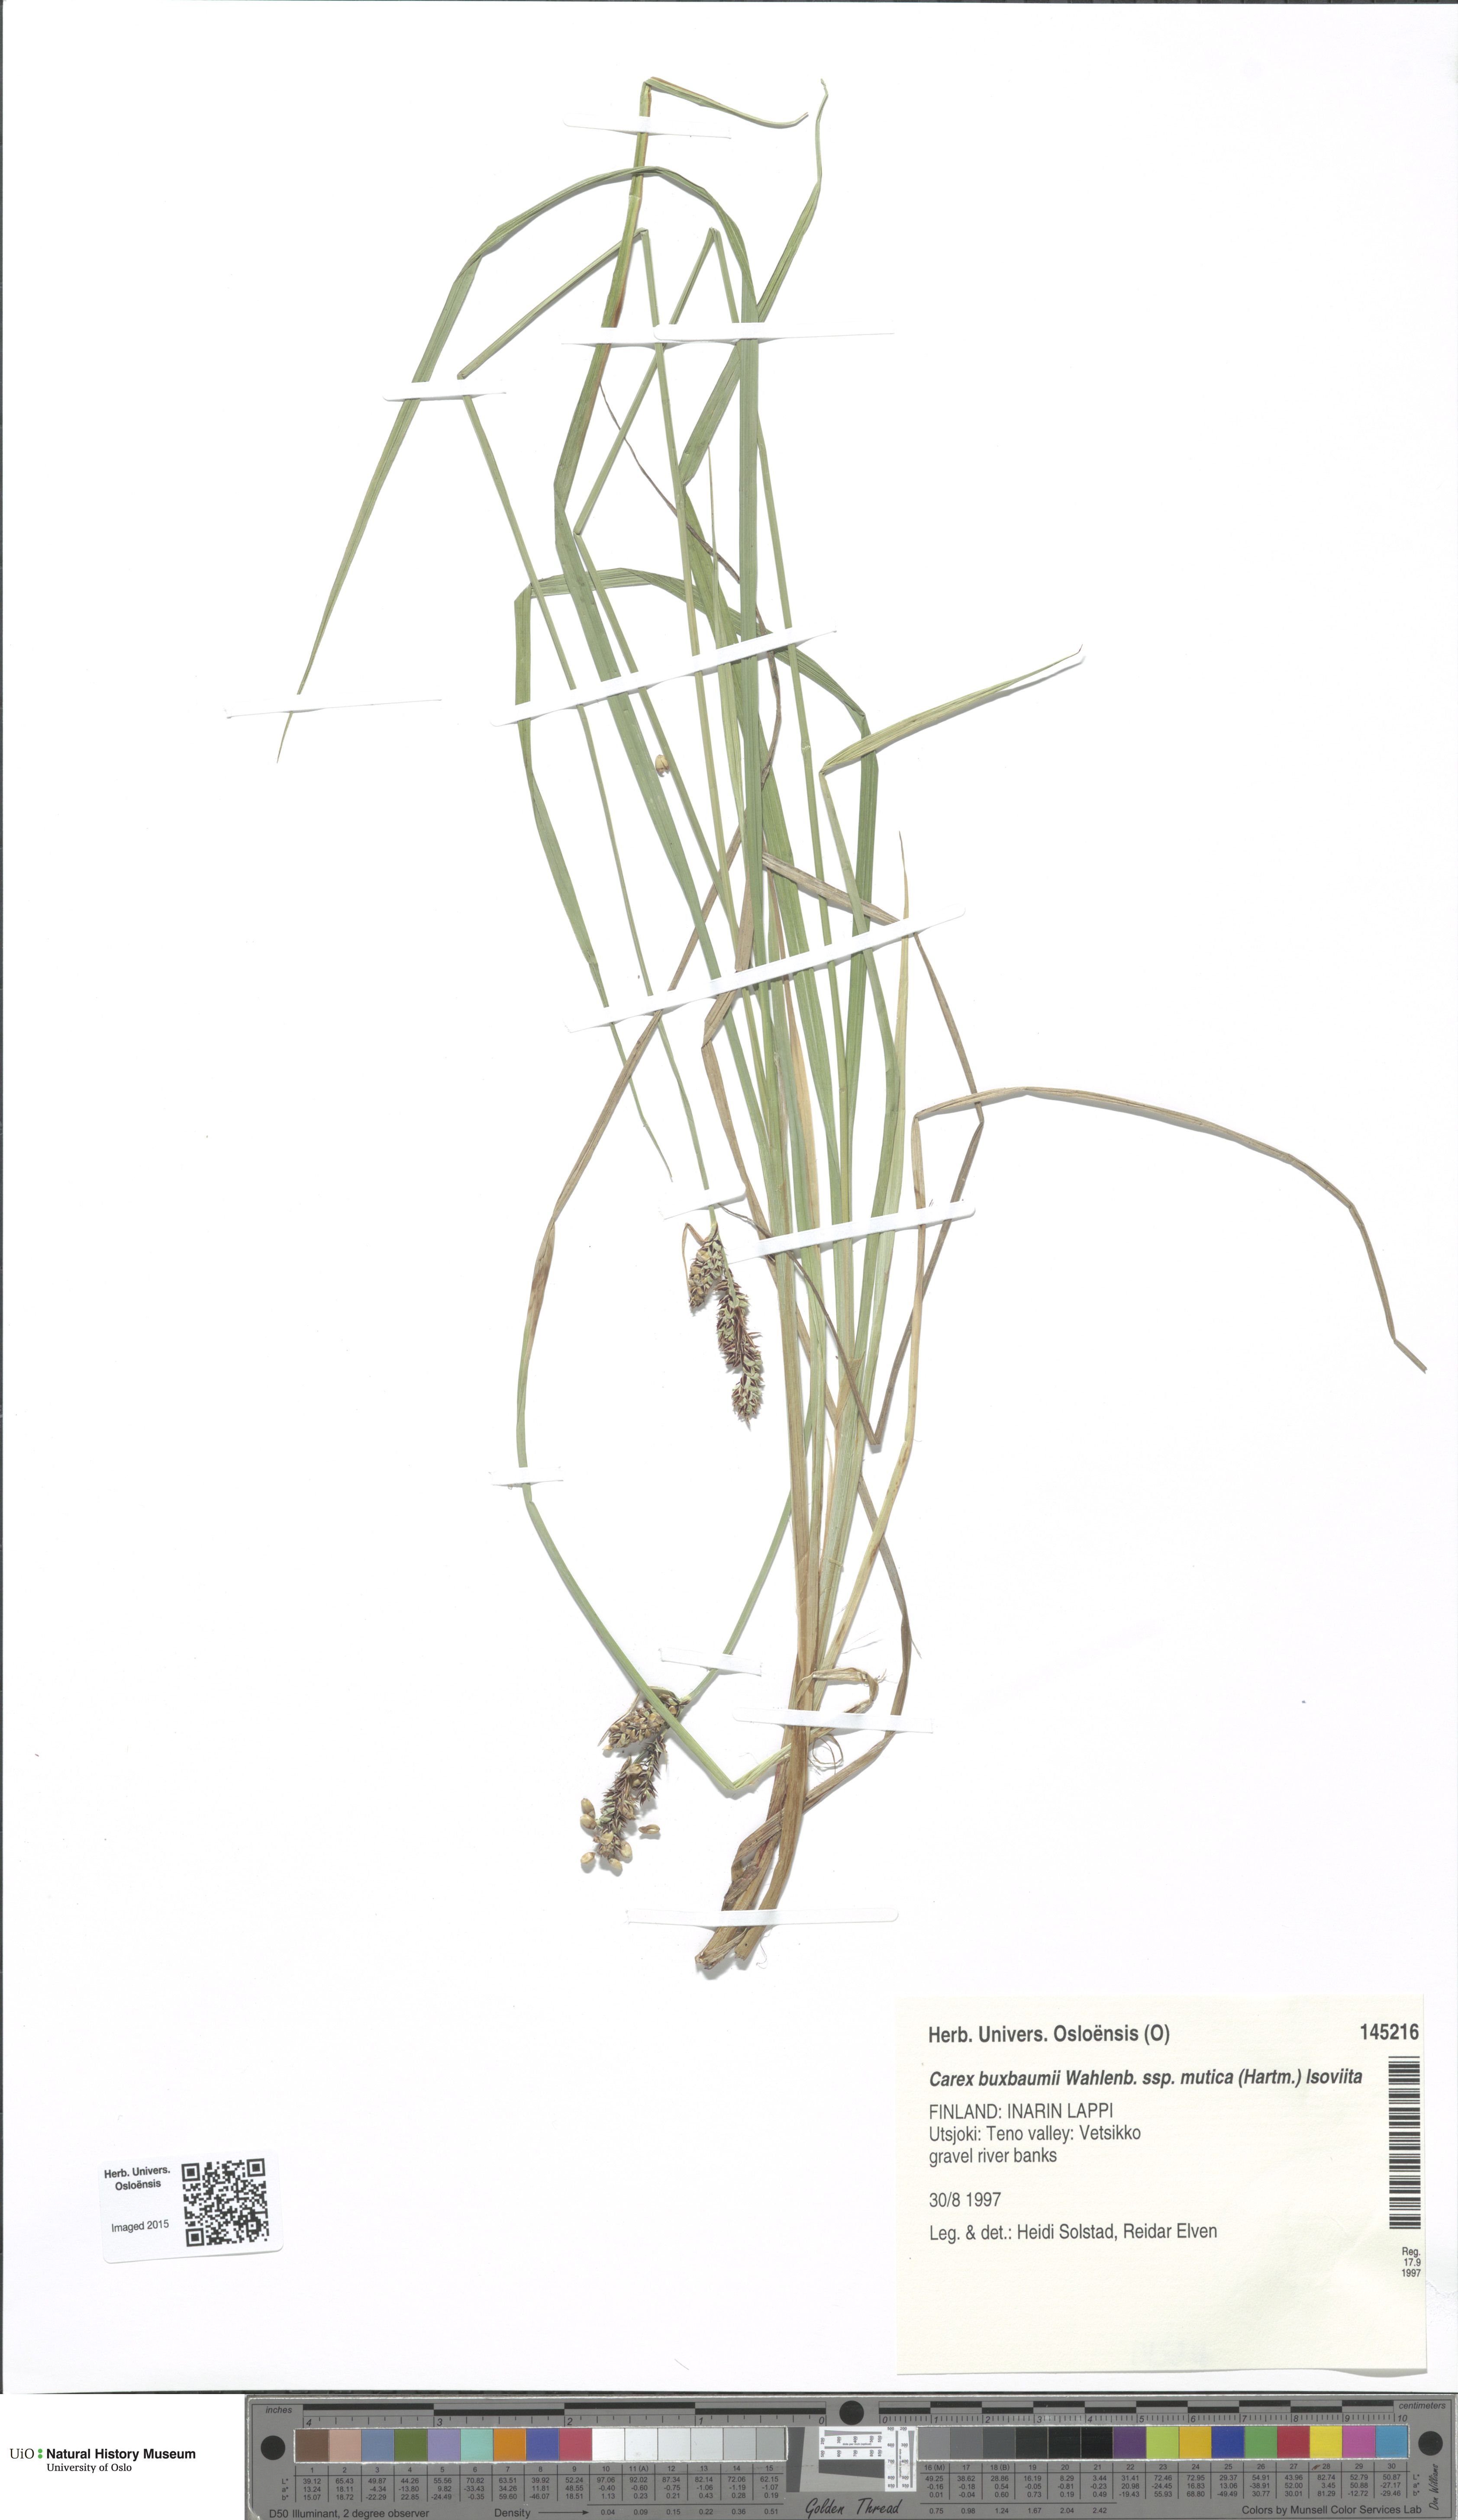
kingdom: Plantae
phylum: Tracheophyta
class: Liliopsida
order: Poales
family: Cyperaceae
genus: Carex
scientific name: Carex adelostoma
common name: Circumpolar sedge
